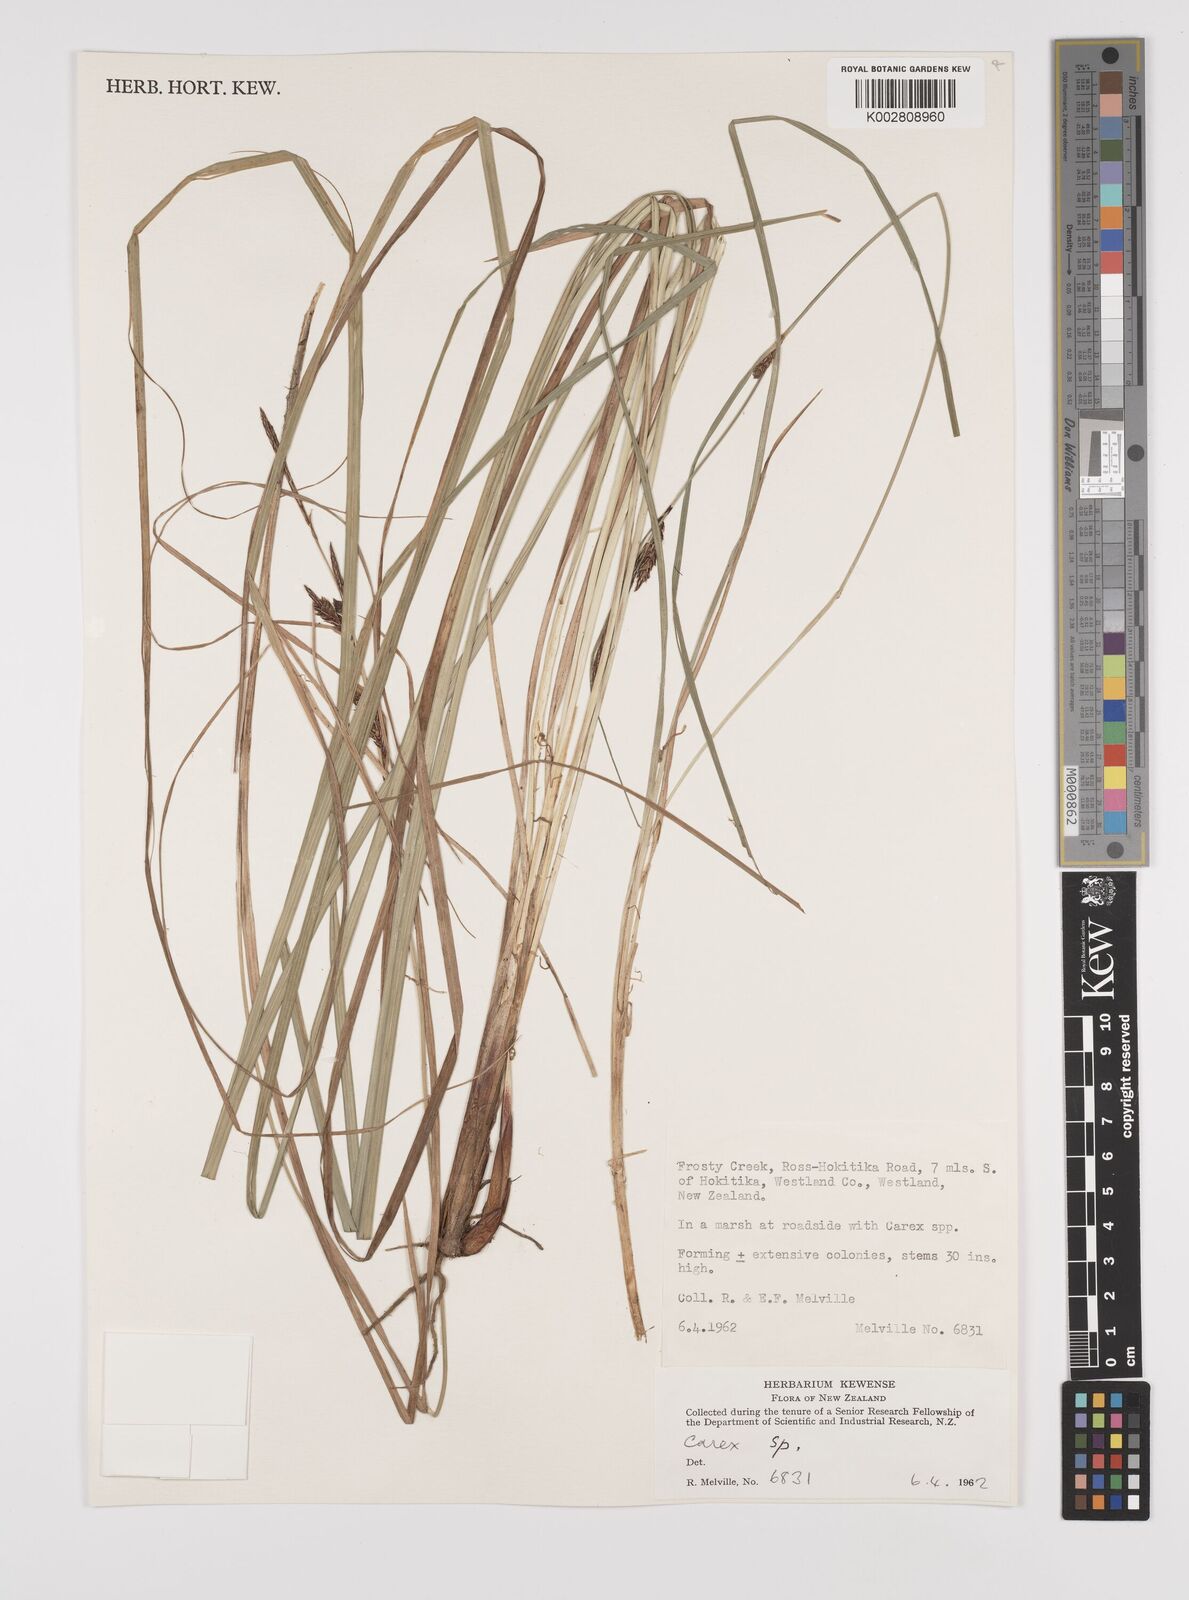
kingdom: Plantae
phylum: Tracheophyta
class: Liliopsida
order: Poales
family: Cyperaceae
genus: Carex
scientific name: Carex
